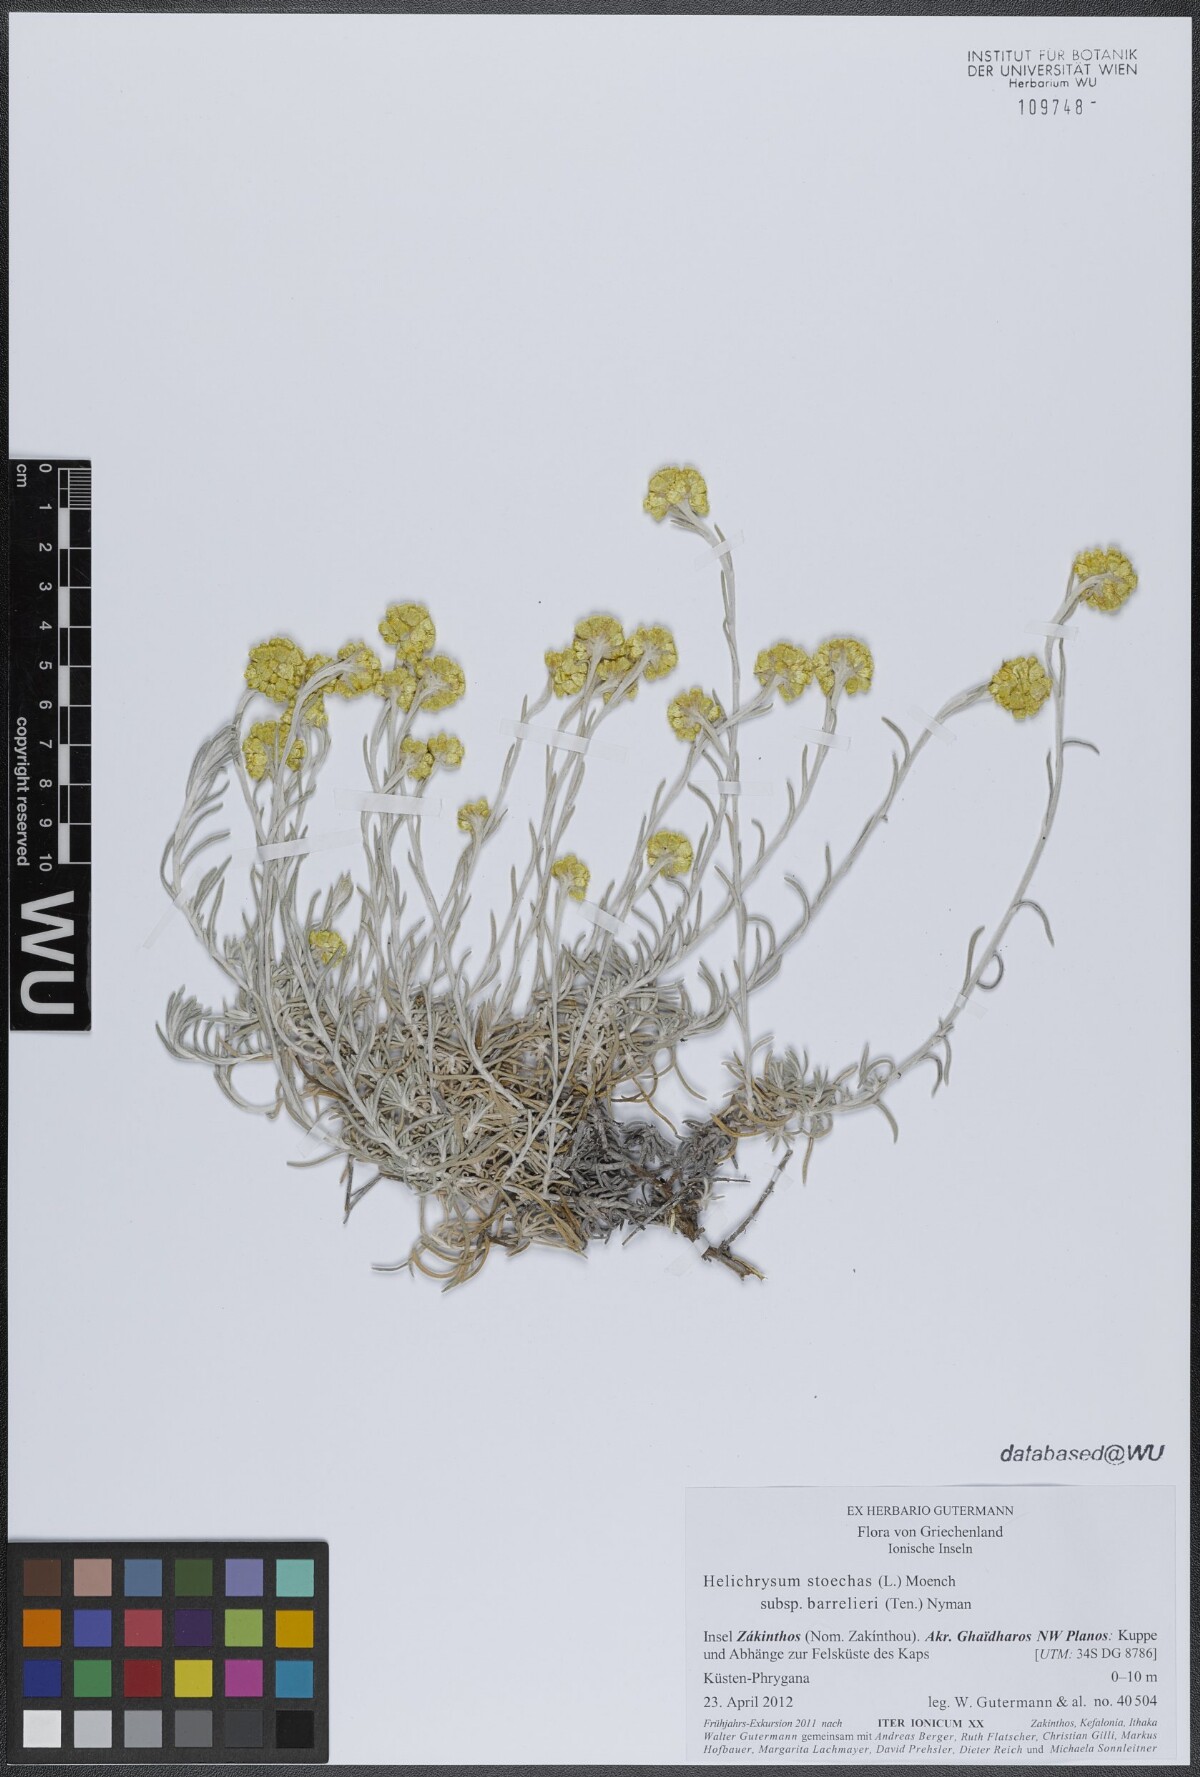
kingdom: Plantae
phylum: Tracheophyta
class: Magnoliopsida
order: Asterales
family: Asteraceae
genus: Helichrysum
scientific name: Helichrysum stoechas
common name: Goldilocks
